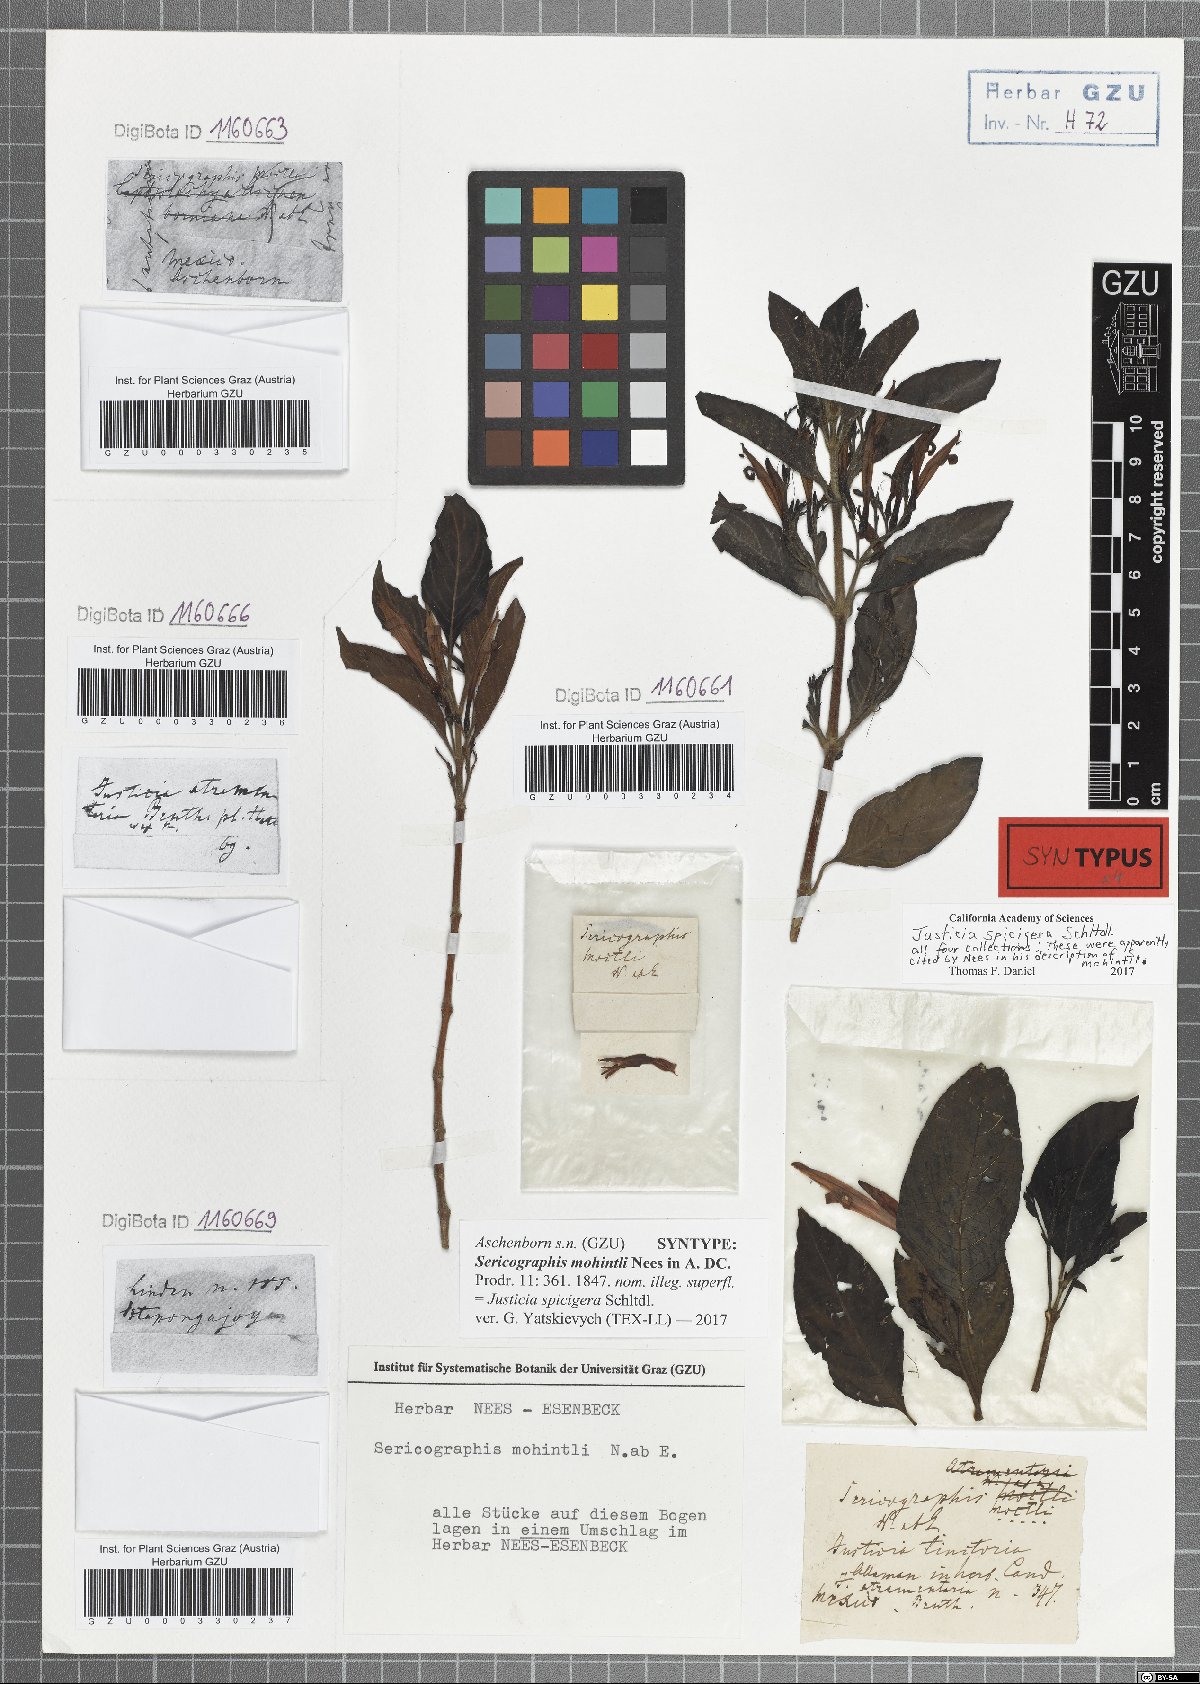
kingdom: Plantae
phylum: Tracheophyta
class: Magnoliopsida
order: Lamiales
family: Acanthaceae
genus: Justicia
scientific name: Justicia spicigera
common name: Mohintli
